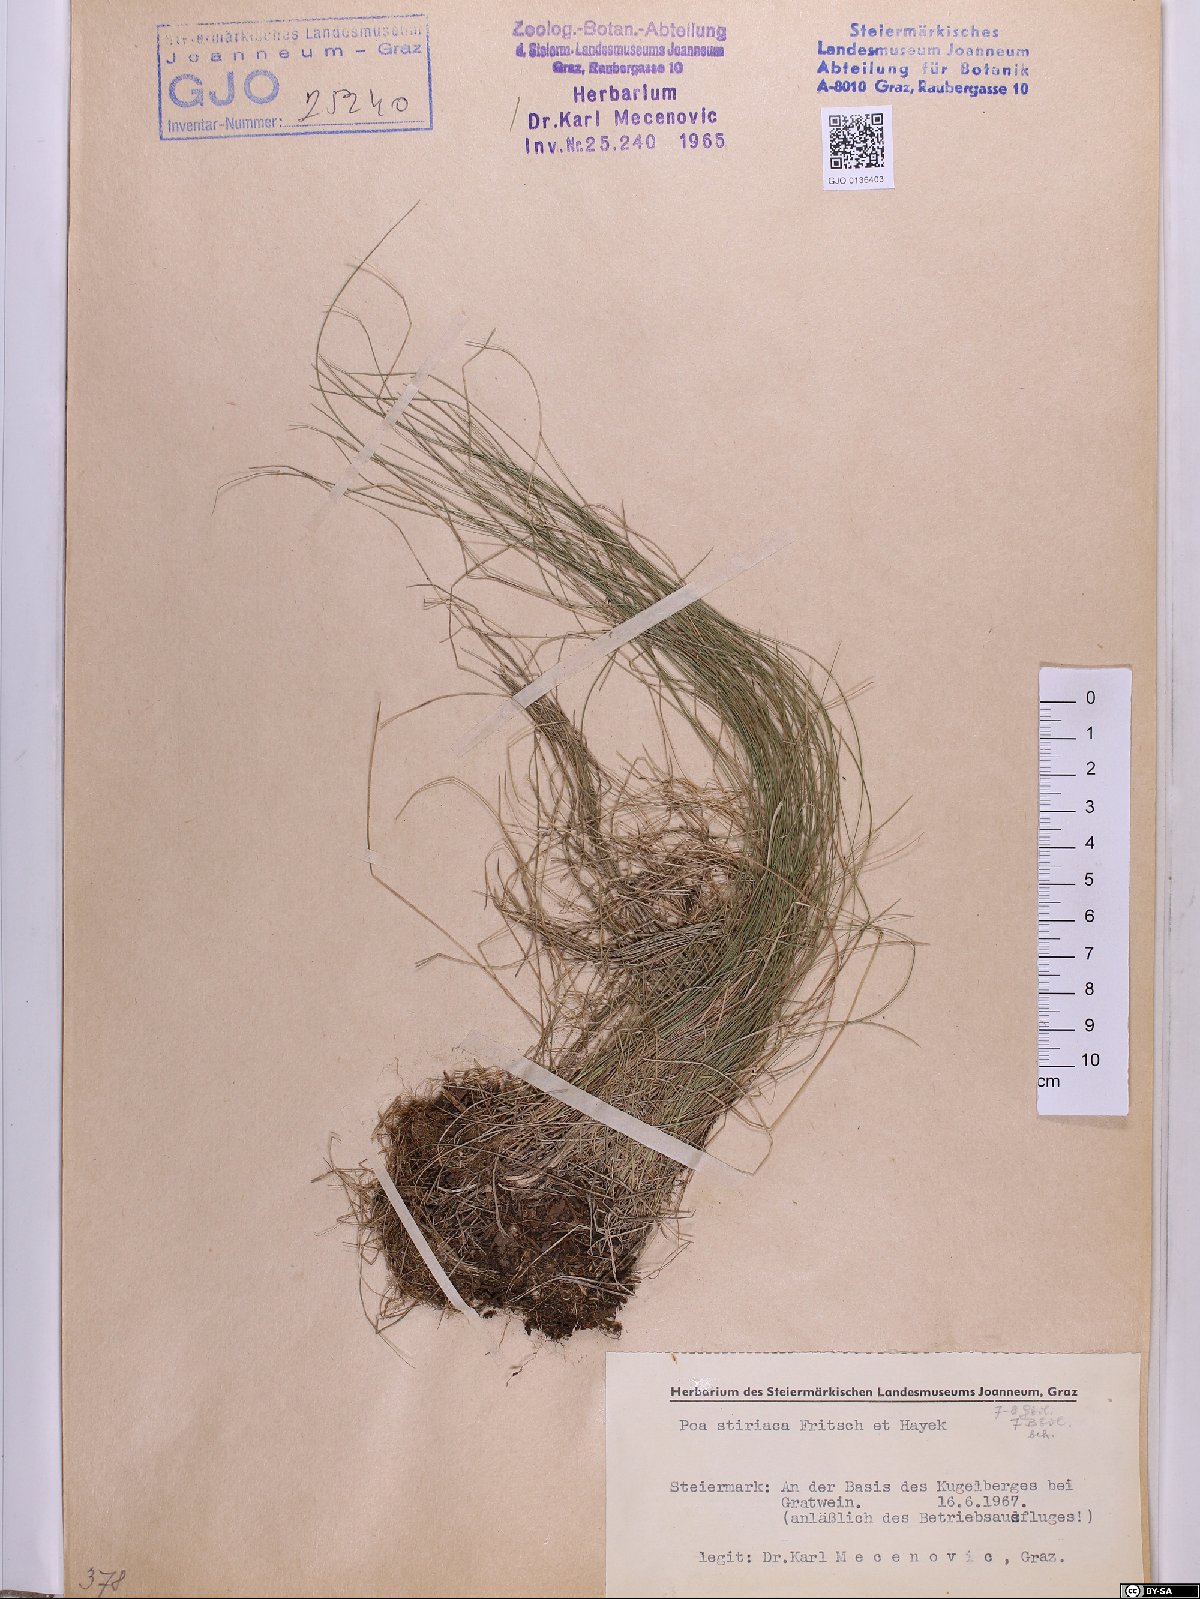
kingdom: Plantae
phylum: Tracheophyta
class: Liliopsida
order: Poales
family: Poaceae
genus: Poa
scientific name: Poa stiriaca
